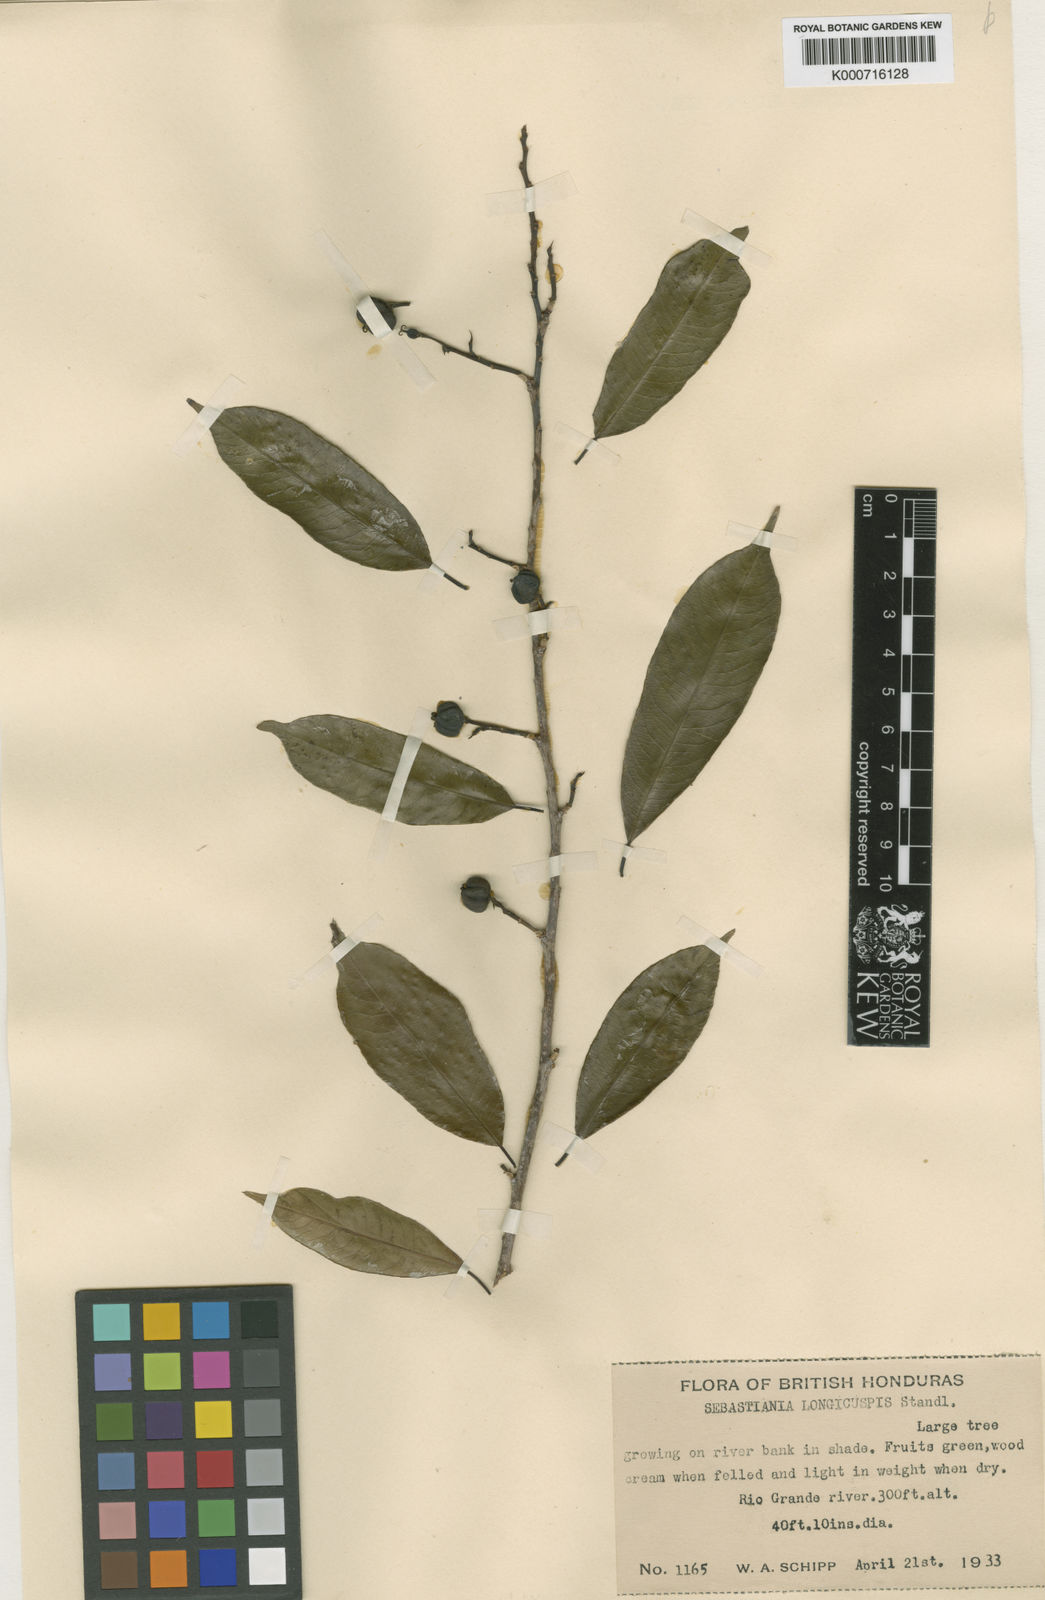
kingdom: Plantae
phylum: Tracheophyta
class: Magnoliopsida
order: Malpighiales
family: Euphorbiaceae
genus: Pleradenophora
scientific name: Pleradenophora
